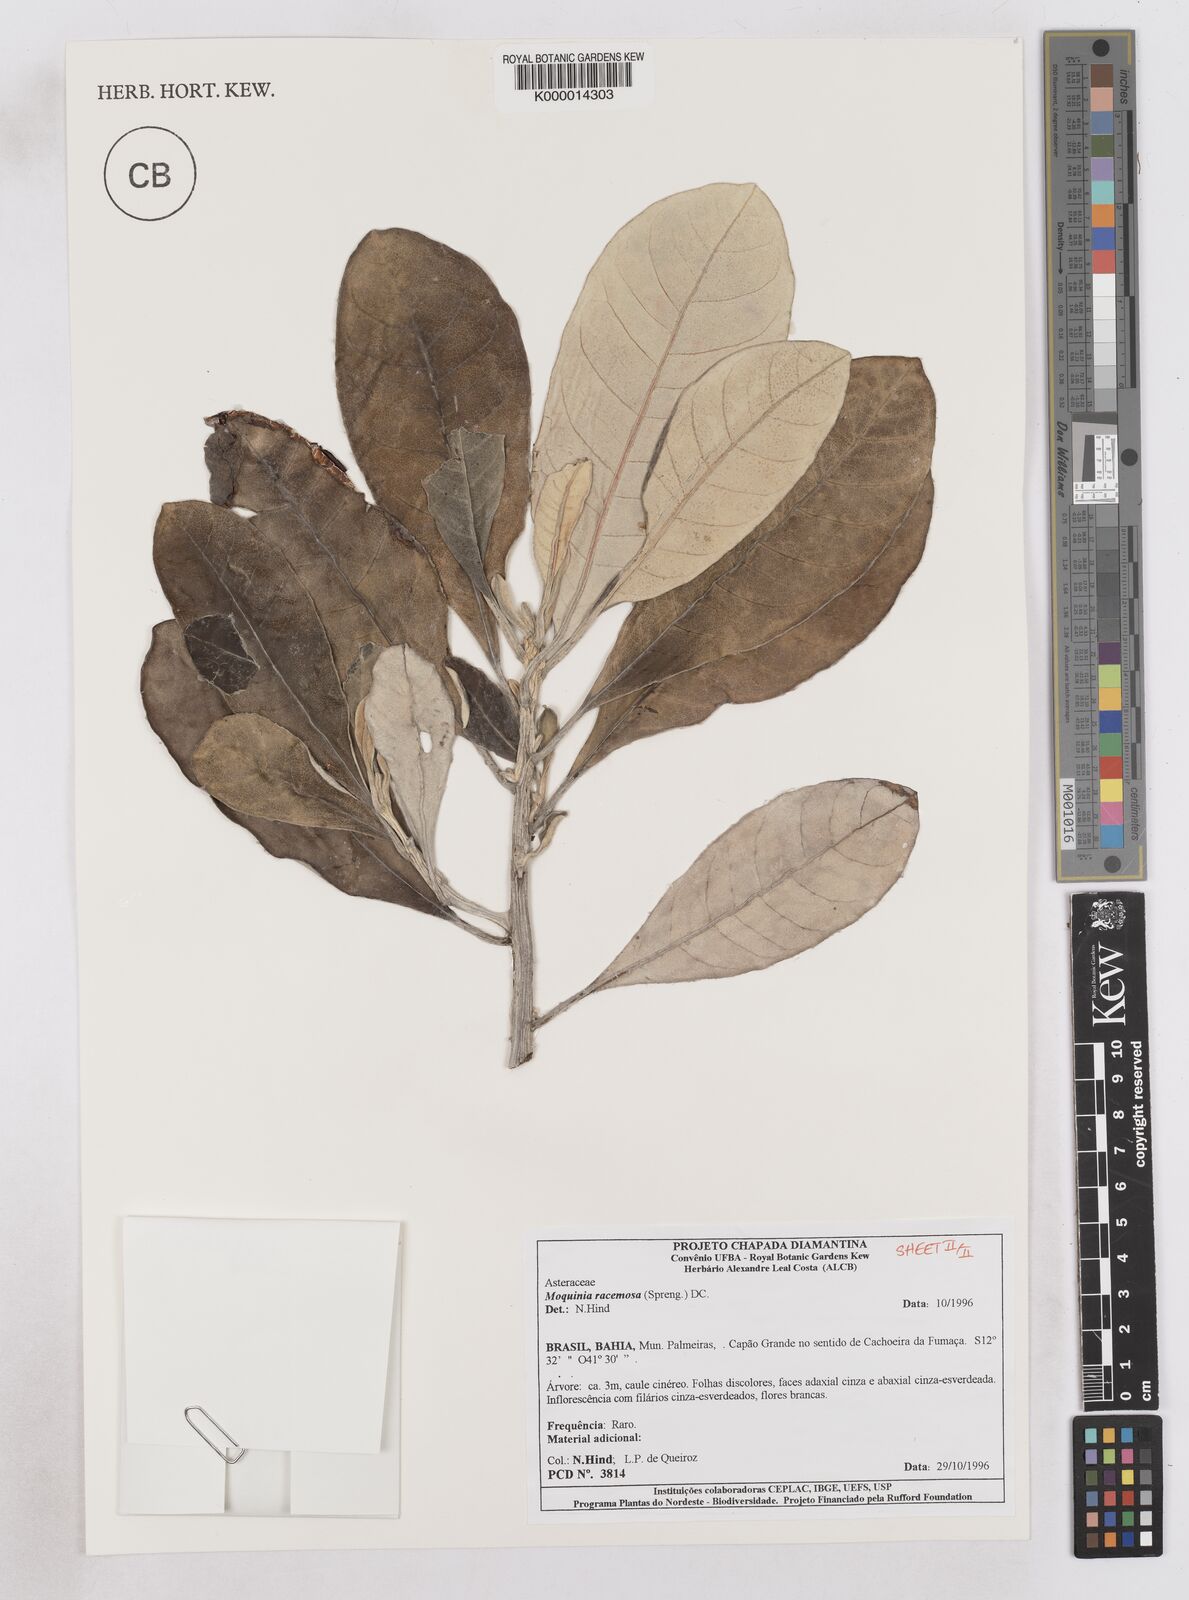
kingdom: Plantae
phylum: Tracheophyta
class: Magnoliopsida
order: Asterales
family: Asteraceae
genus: Moquinia
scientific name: Moquinia racemosa
